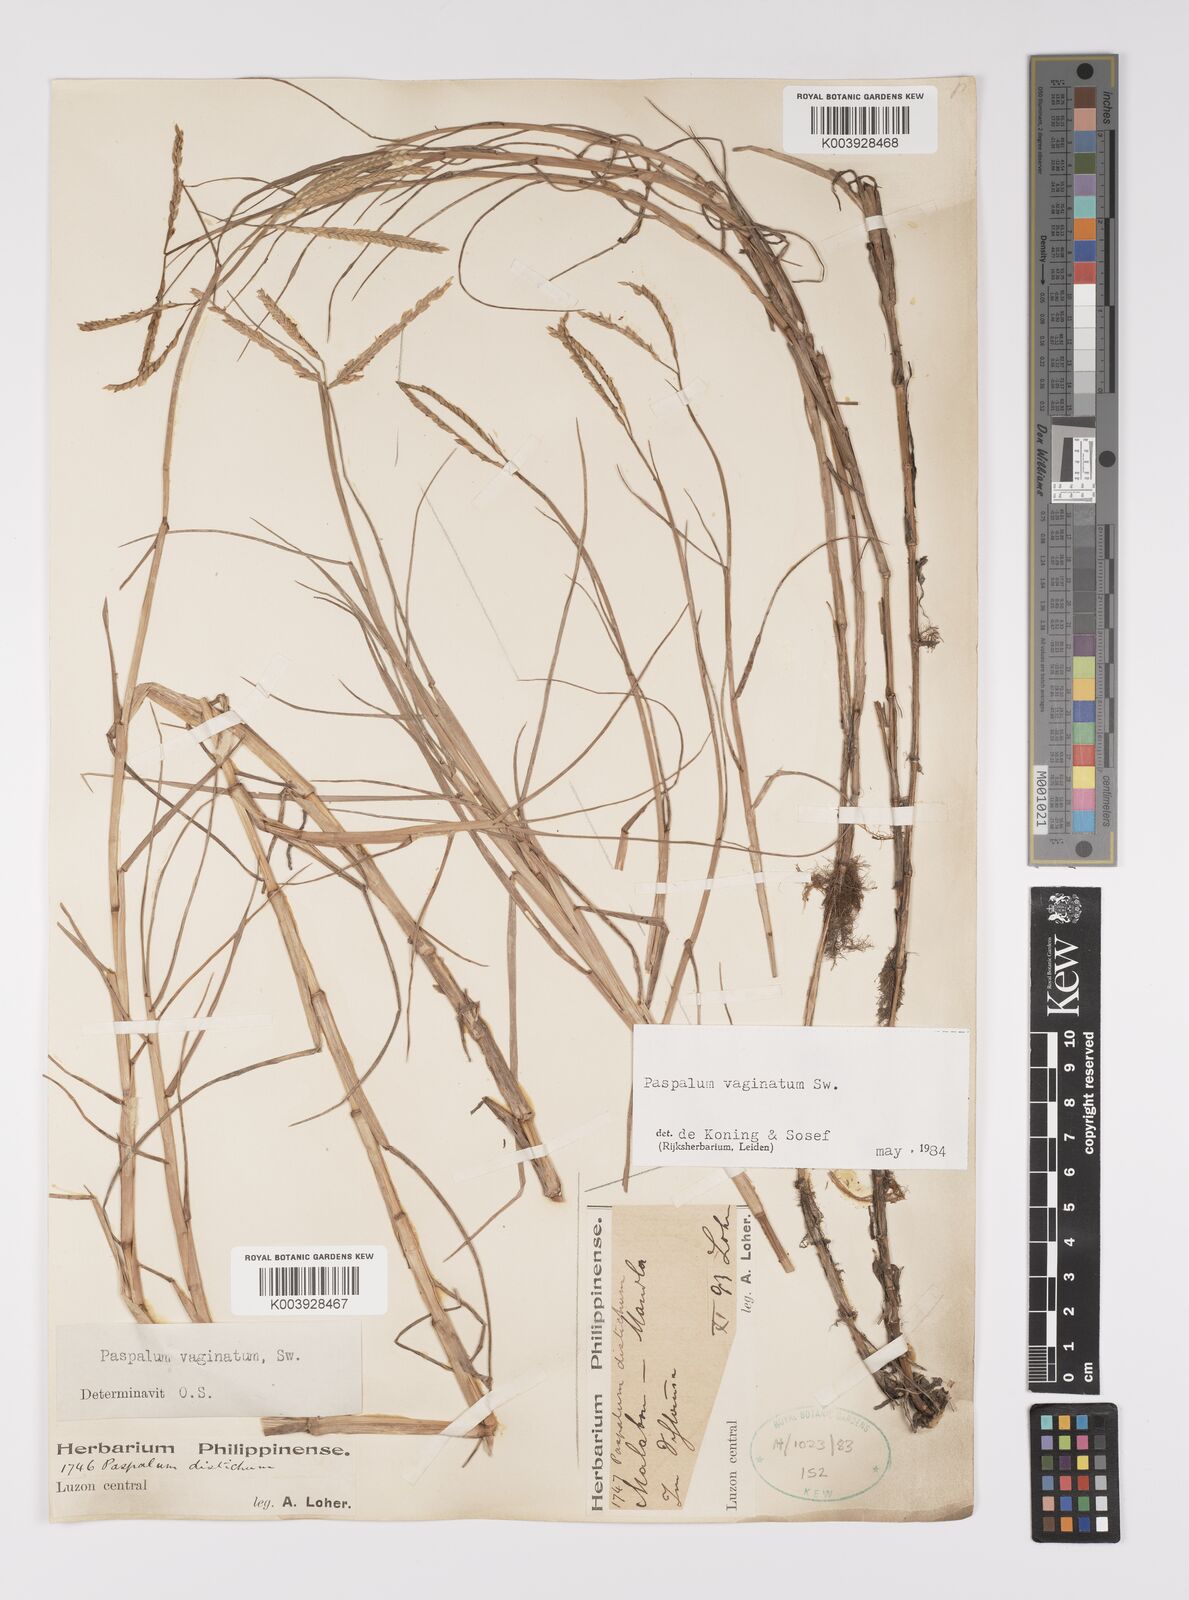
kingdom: Plantae
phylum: Tracheophyta
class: Liliopsida
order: Poales
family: Poaceae
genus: Paspalum
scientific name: Paspalum vaginatum
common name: Seashore paspalum
